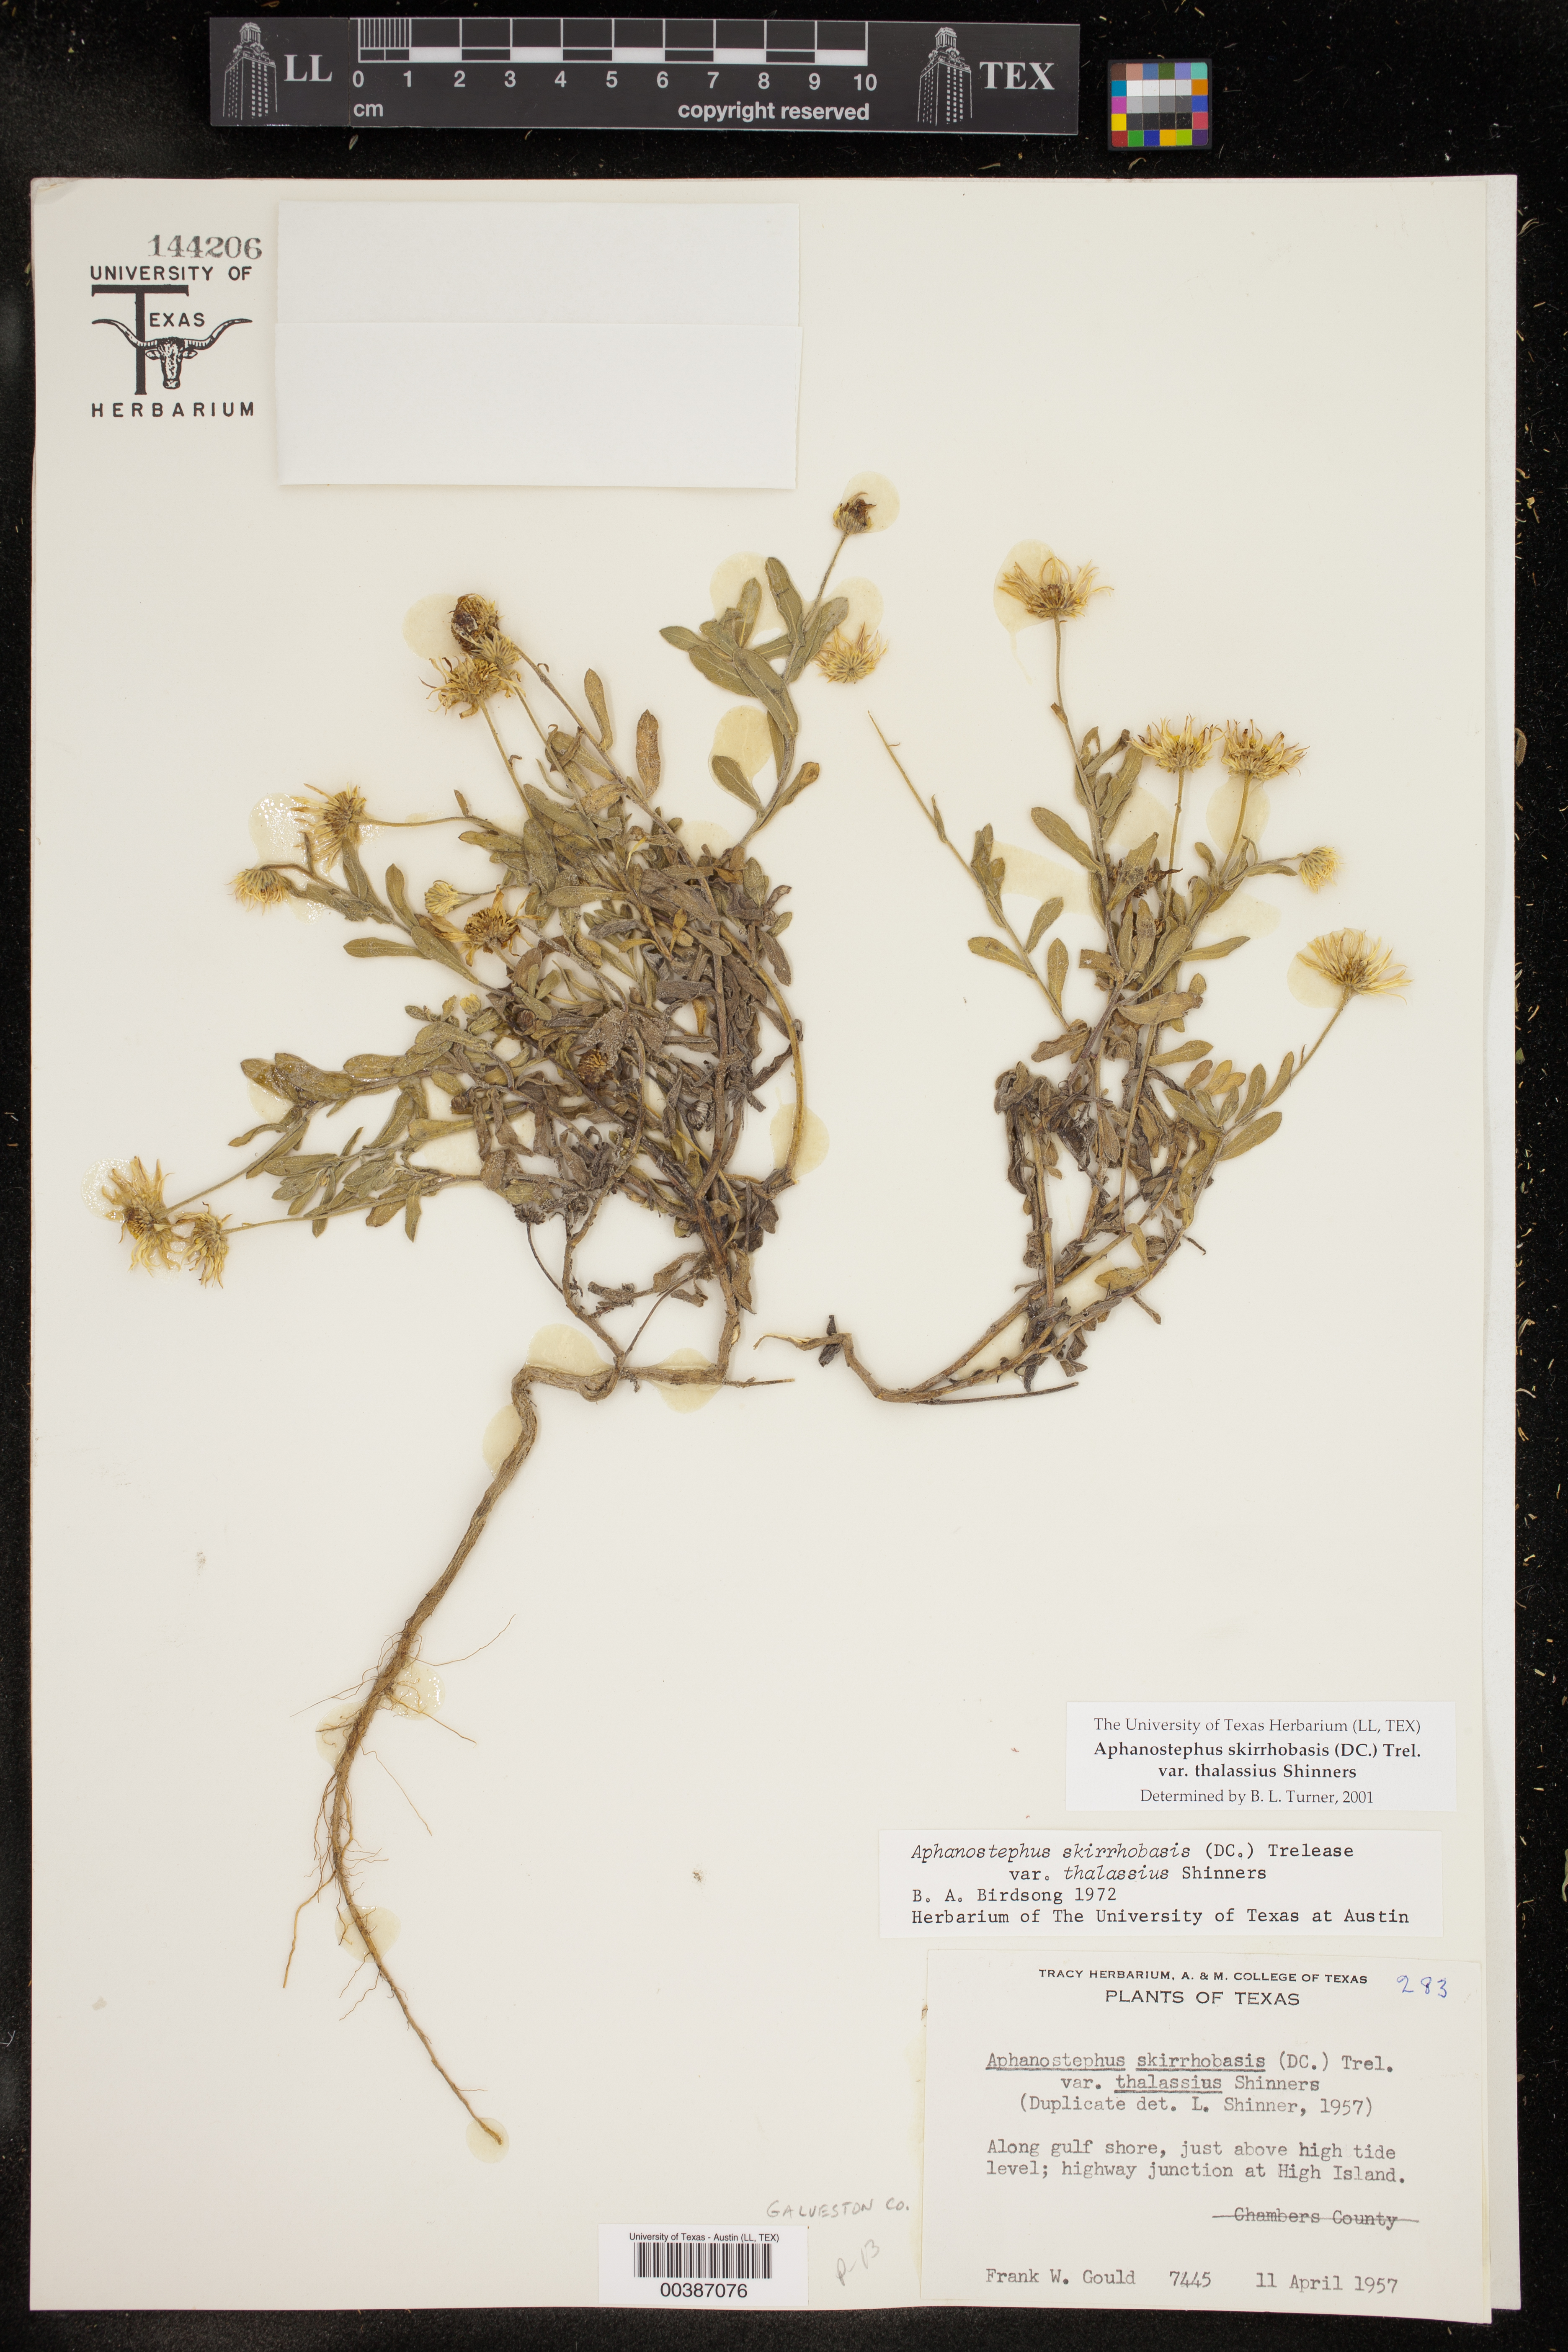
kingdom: Plantae
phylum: Tracheophyta
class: Magnoliopsida
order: Asterales
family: Asteraceae
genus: Aphanostephus
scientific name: Aphanostephus skirrhobasis
